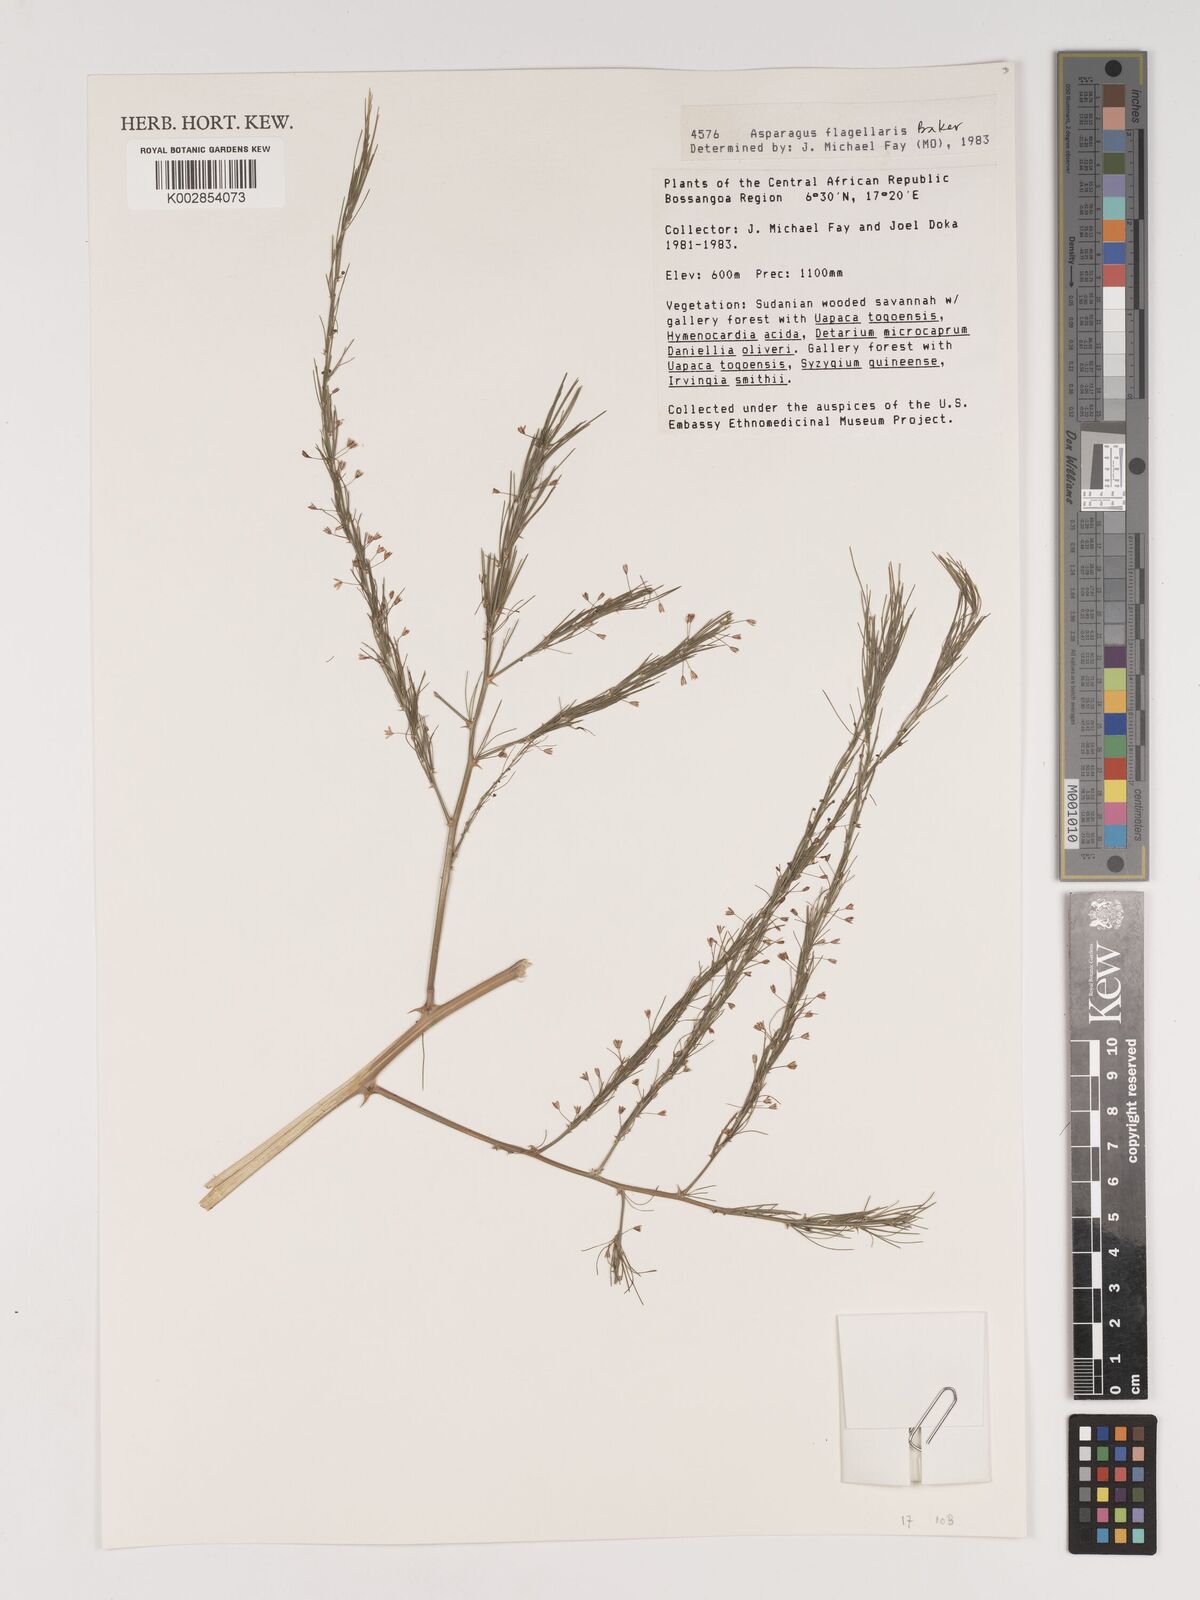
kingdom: Plantae
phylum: Tracheophyta
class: Liliopsida
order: Asparagales
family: Asparagaceae
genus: Asparagus
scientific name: Asparagus flagellaris
